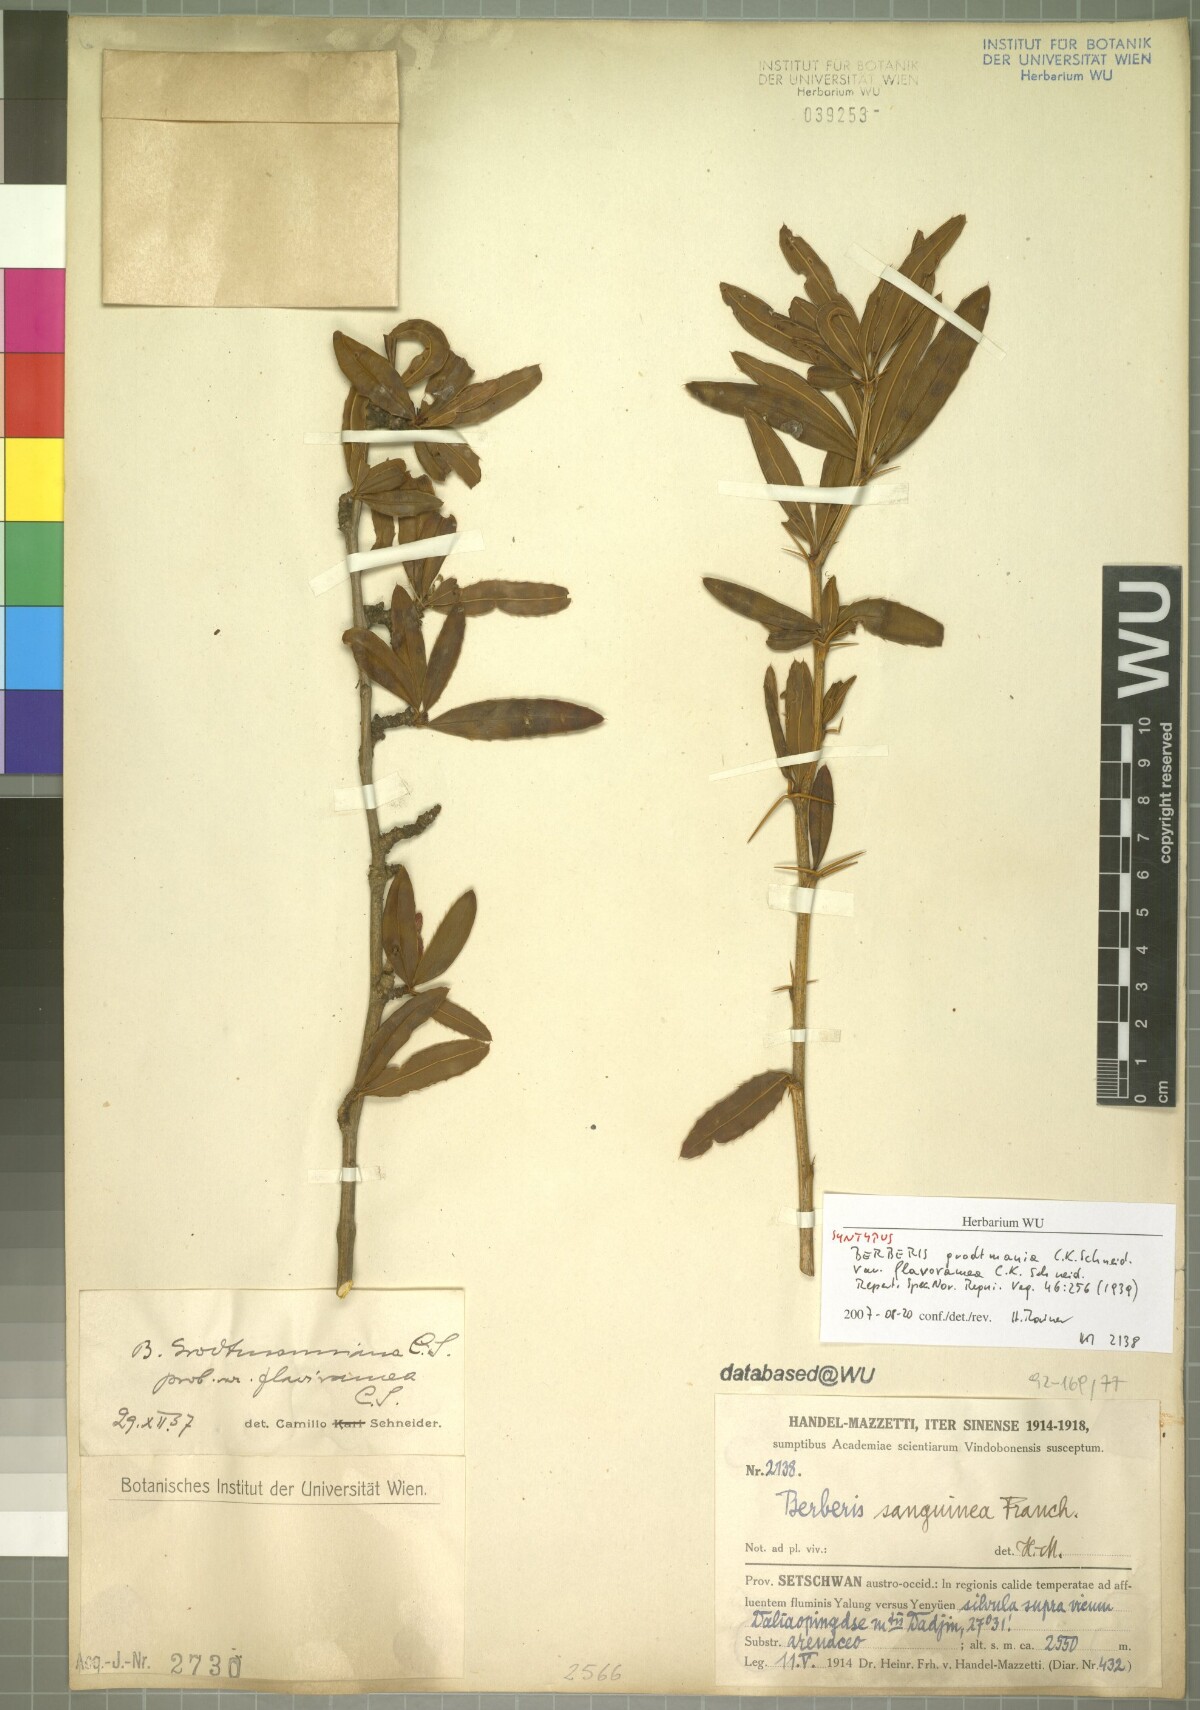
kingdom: Plantae
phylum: Tracheophyta
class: Magnoliopsida
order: Ranunculales
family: Berberidaceae
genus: Berberis
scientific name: Berberis grodtmanniana
